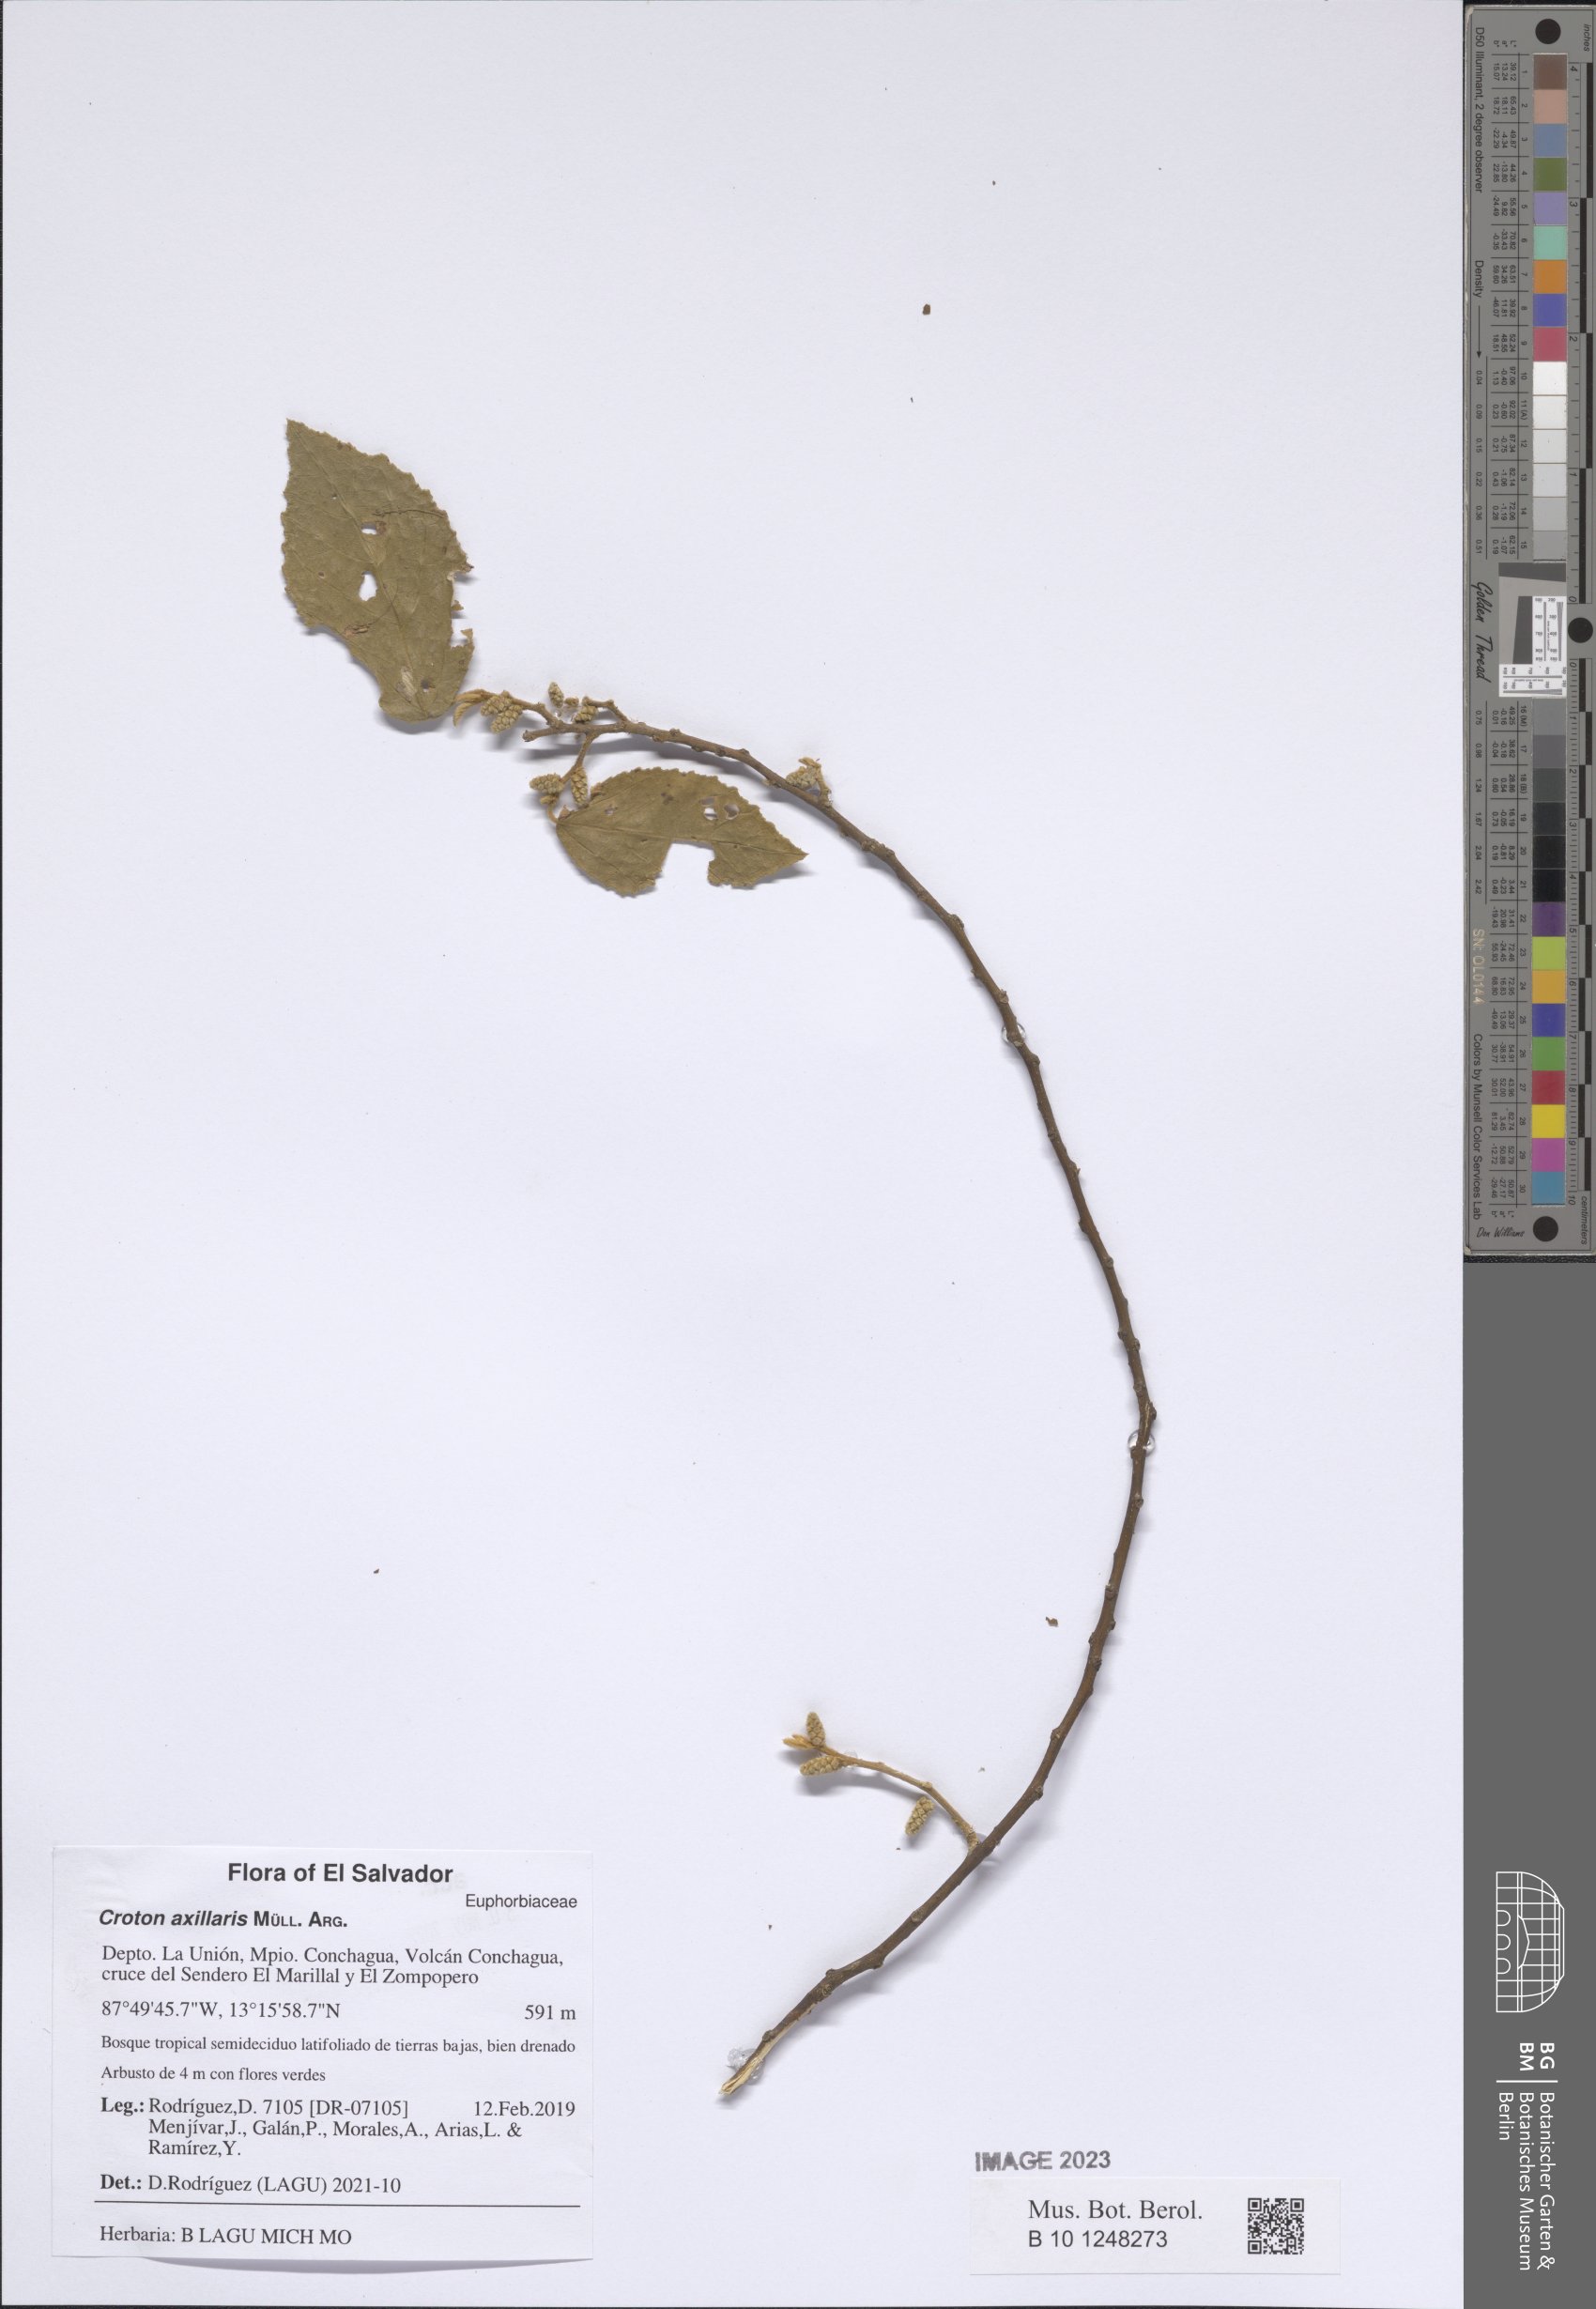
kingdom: Plantae
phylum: Tracheophyta
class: Magnoliopsida
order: Malpighiales
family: Euphorbiaceae
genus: Croton
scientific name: Croton axillaris
